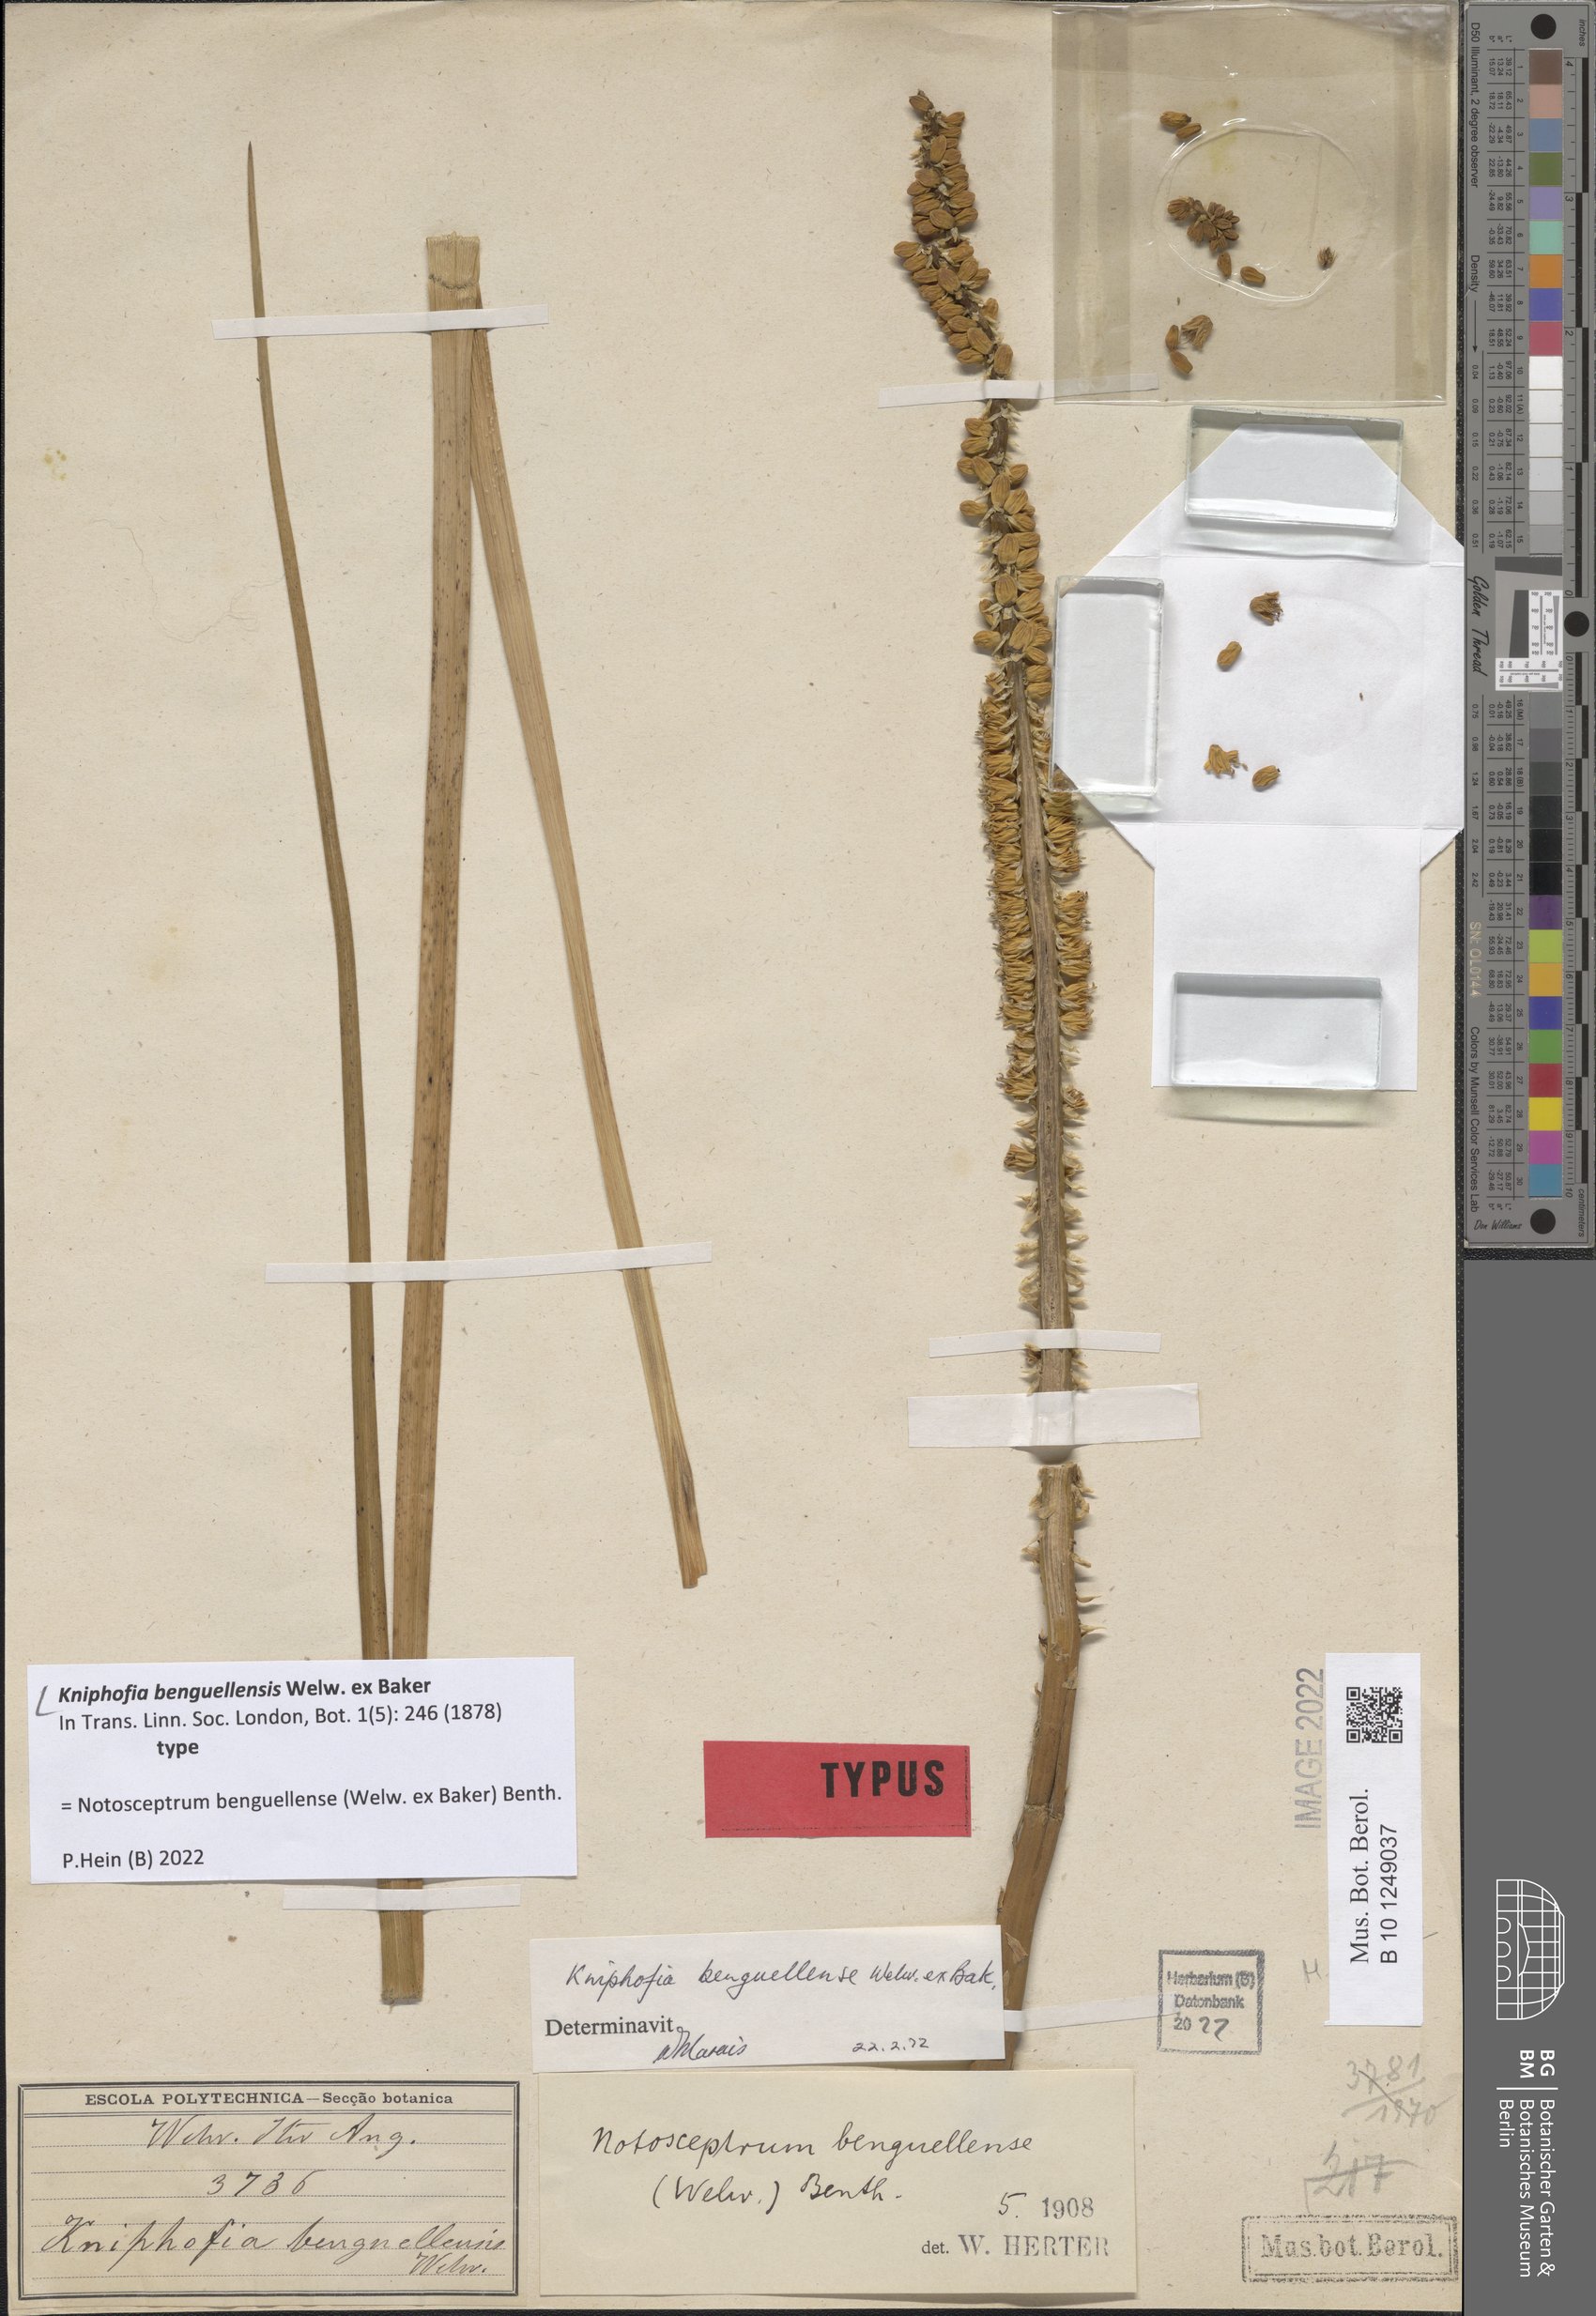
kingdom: Plantae
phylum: Tracheophyta
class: Liliopsida
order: Asparagales
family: Asphodelaceae
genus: Kniphofia
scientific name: Kniphofia benguellensis
